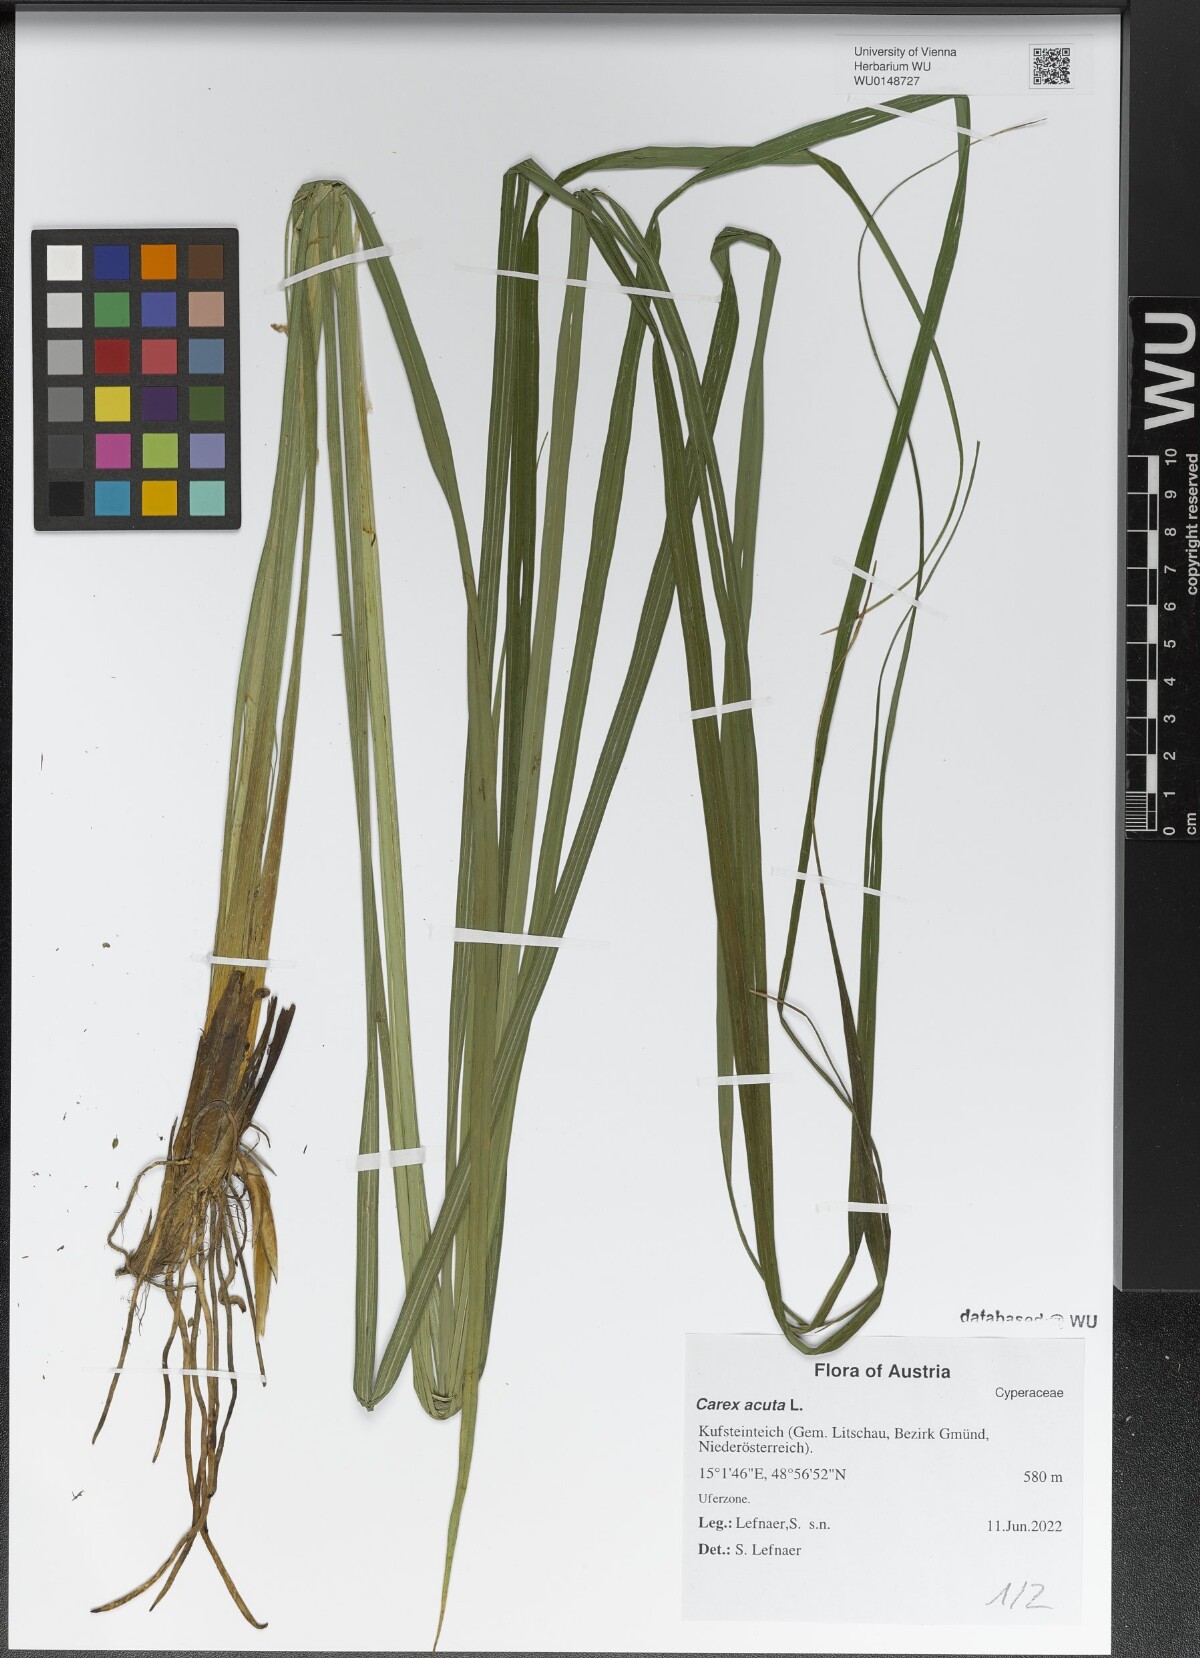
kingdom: Plantae
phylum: Tracheophyta
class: Liliopsida
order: Poales
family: Cyperaceae
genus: Carex
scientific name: Carex acuta
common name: Slender tufted-sedge
